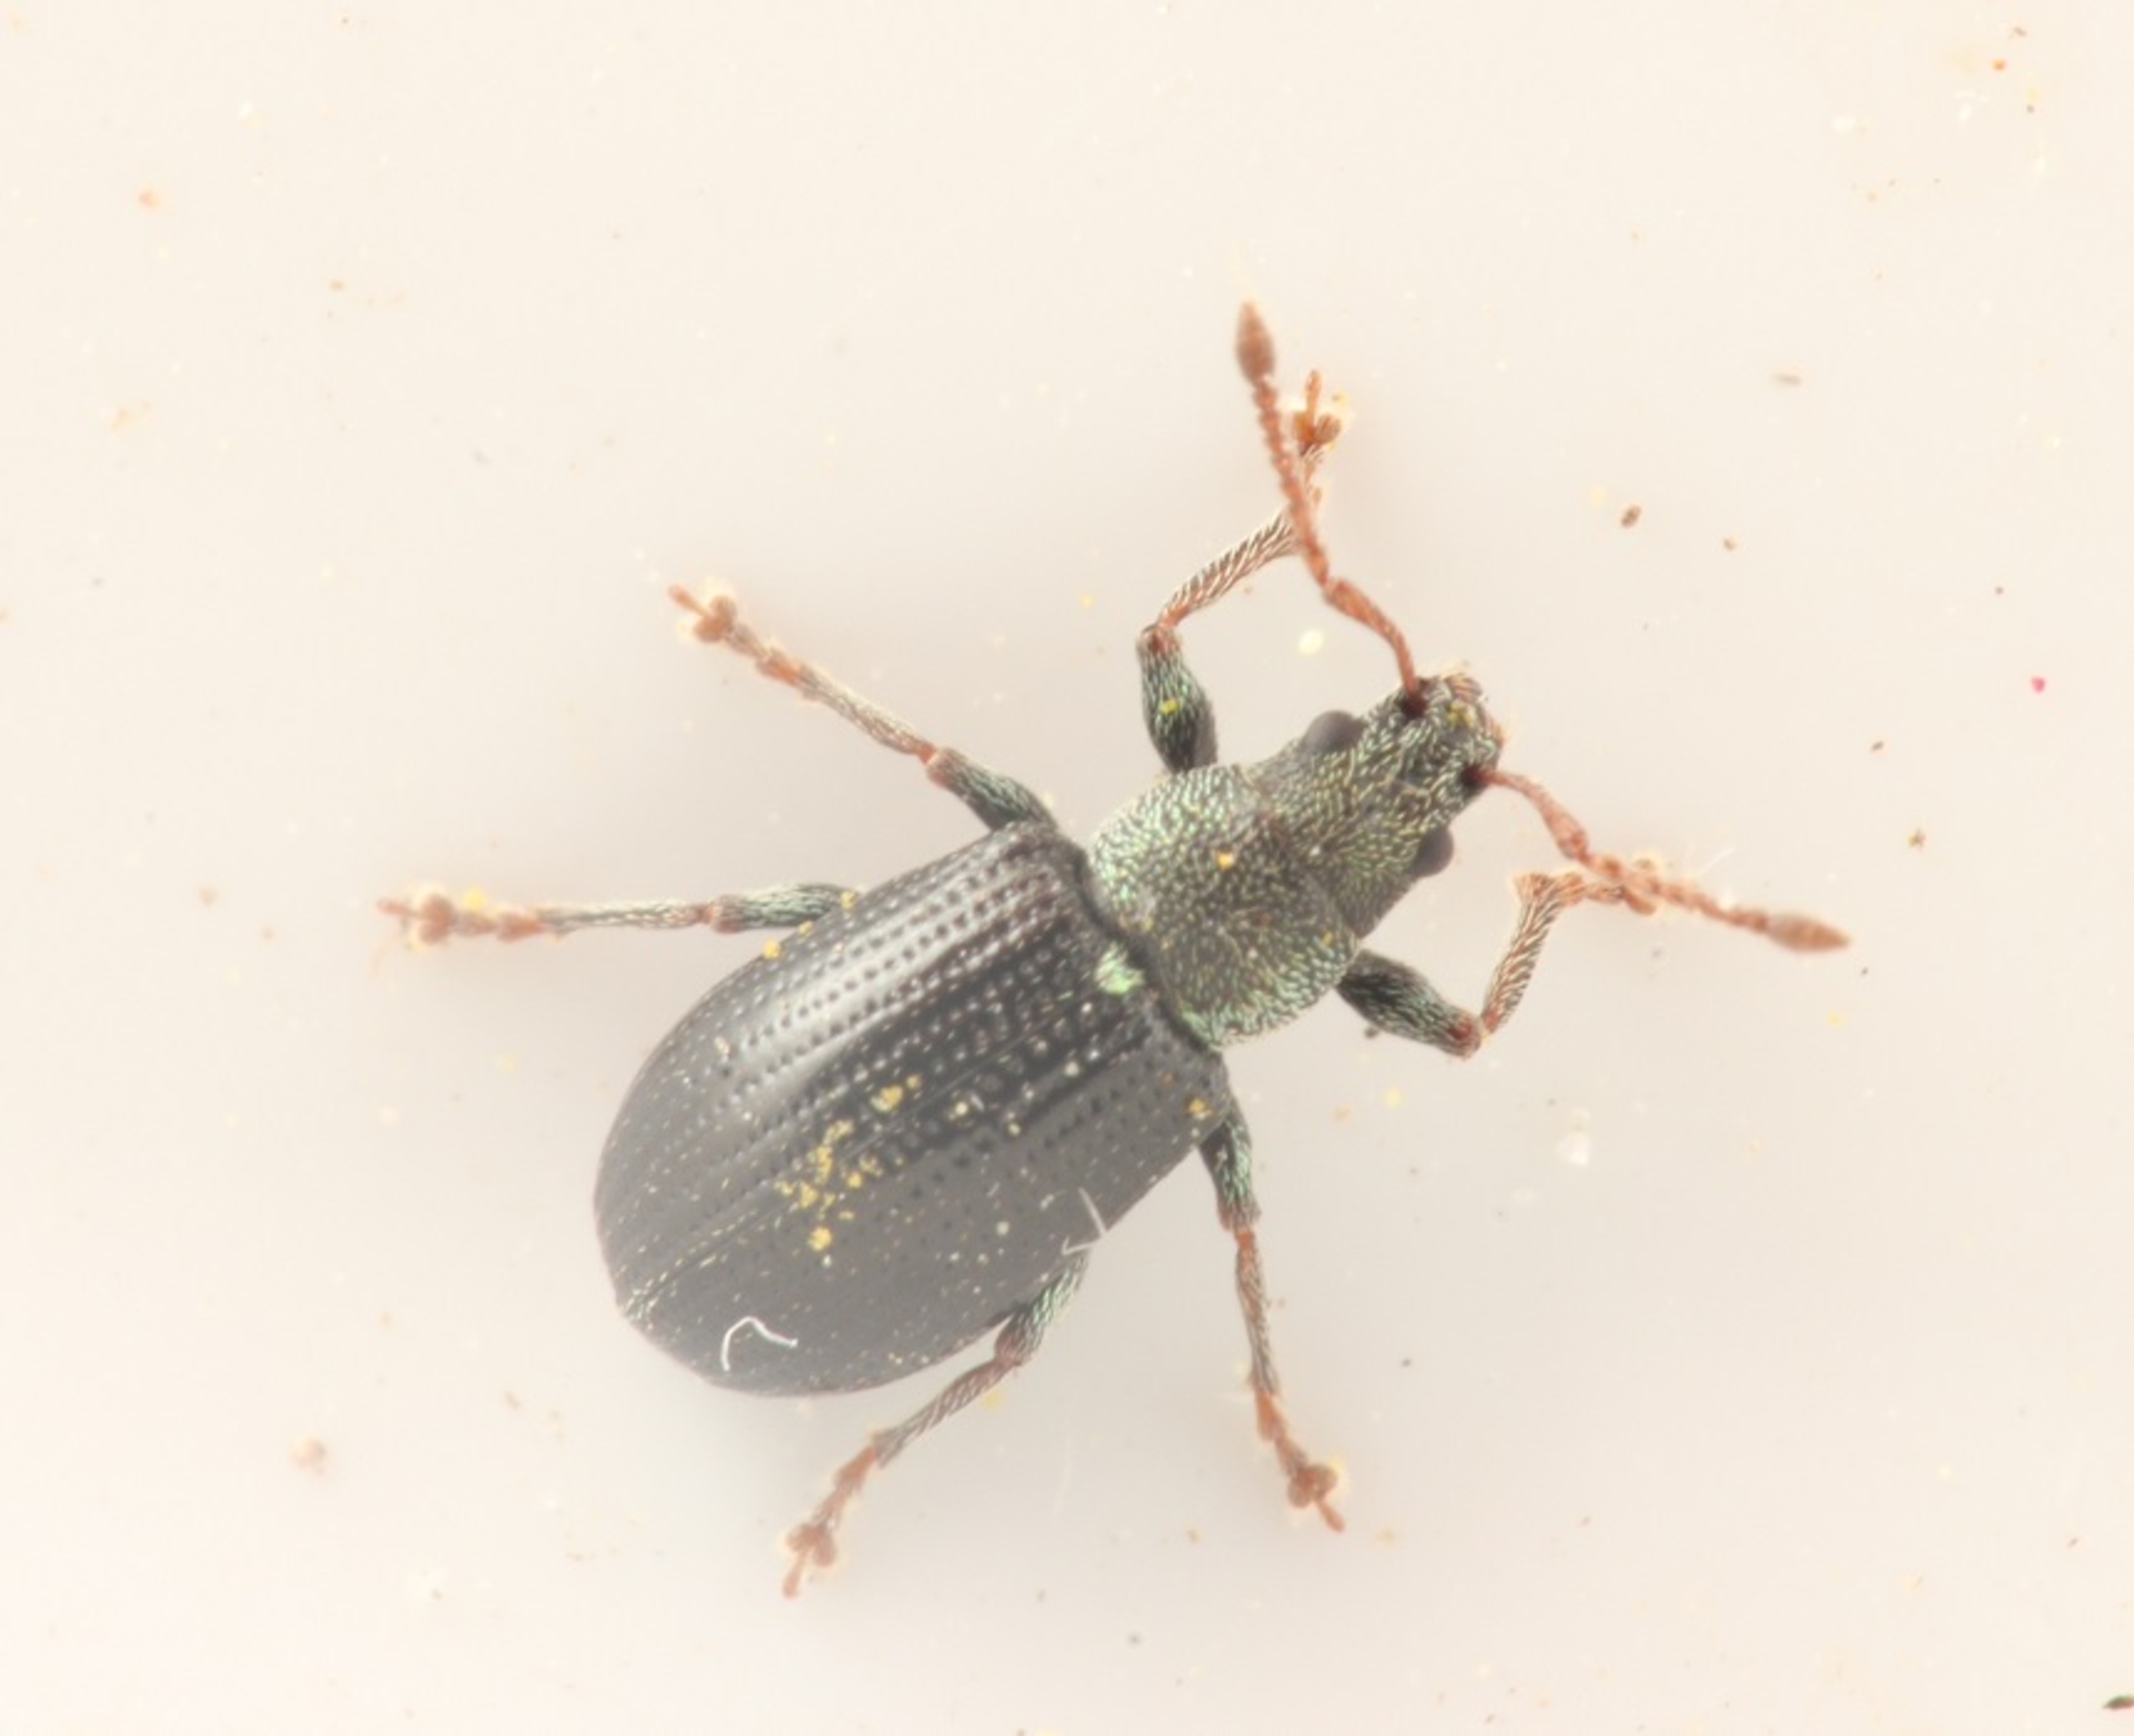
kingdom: Animalia
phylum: Arthropoda
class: Insecta
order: Coleoptera
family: Curculionidae
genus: Phyllobius
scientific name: Phyllobius viridicollis
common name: Lille løvsnudebille
